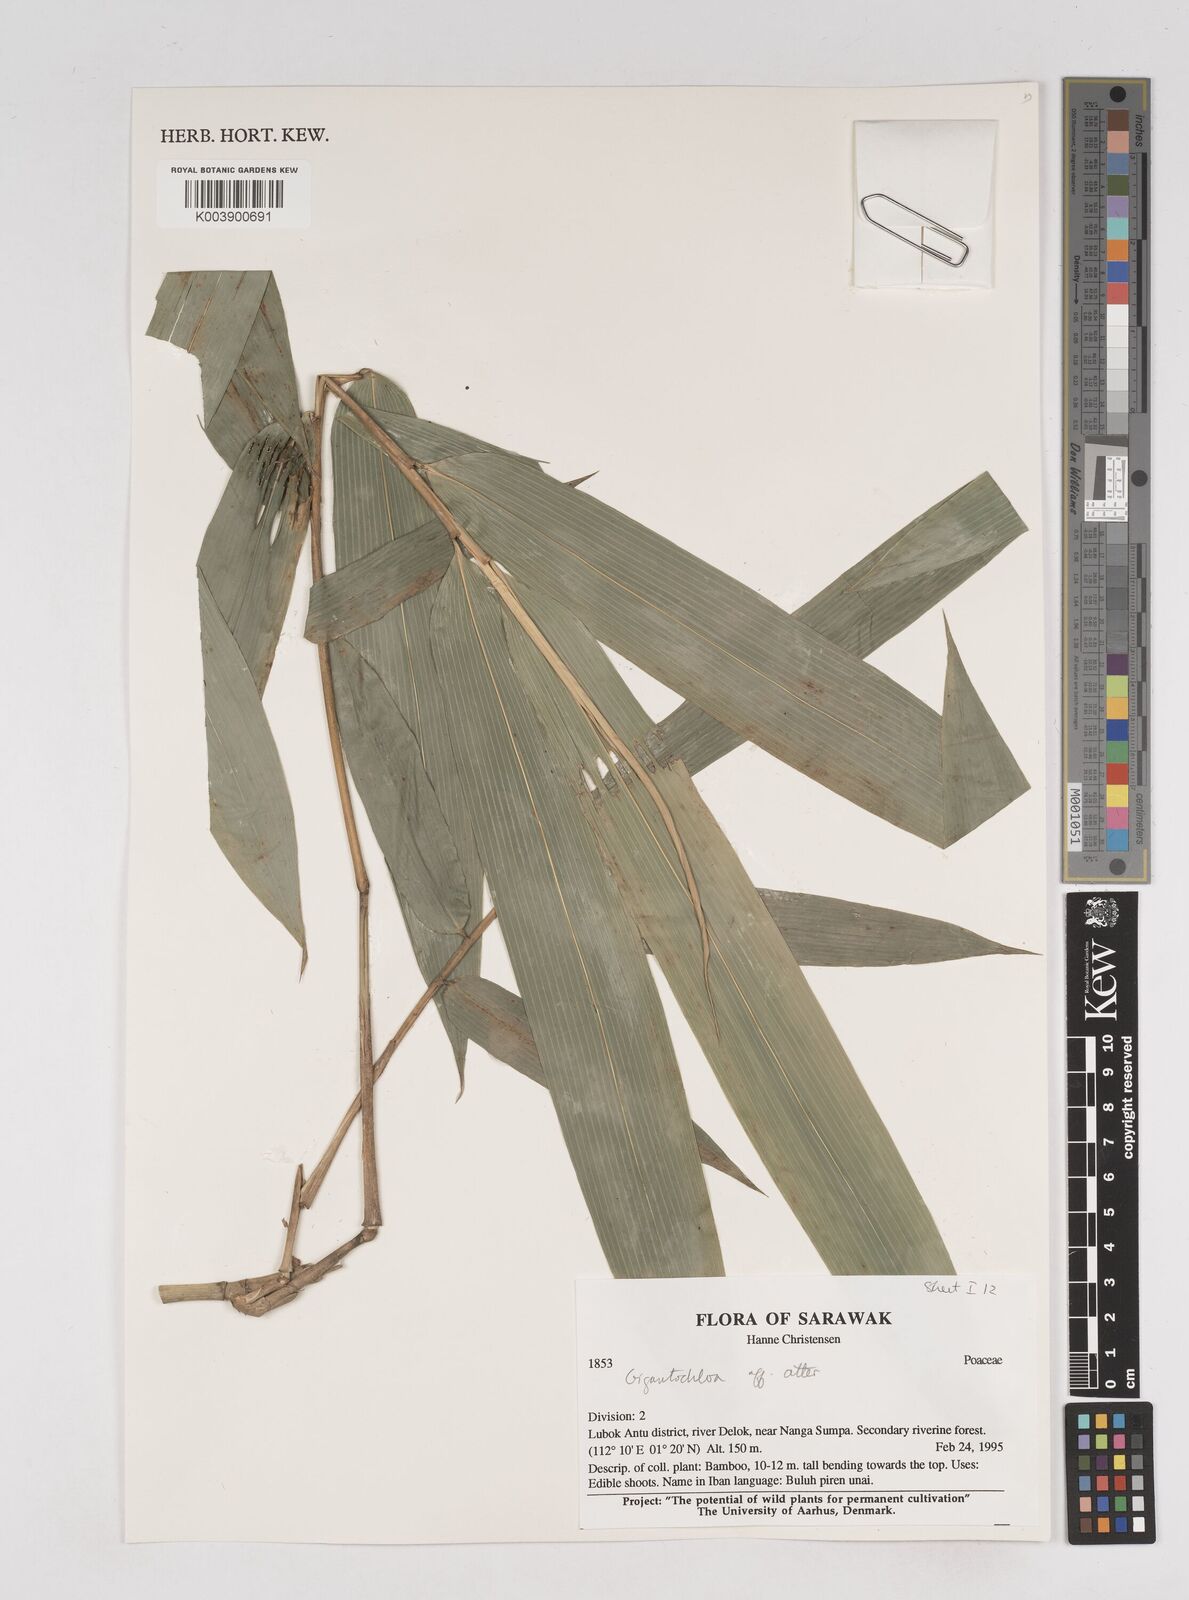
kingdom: Plantae
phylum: Tracheophyta
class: Liliopsida
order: Poales
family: Poaceae
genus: Gigantochloa
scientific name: Gigantochloa
